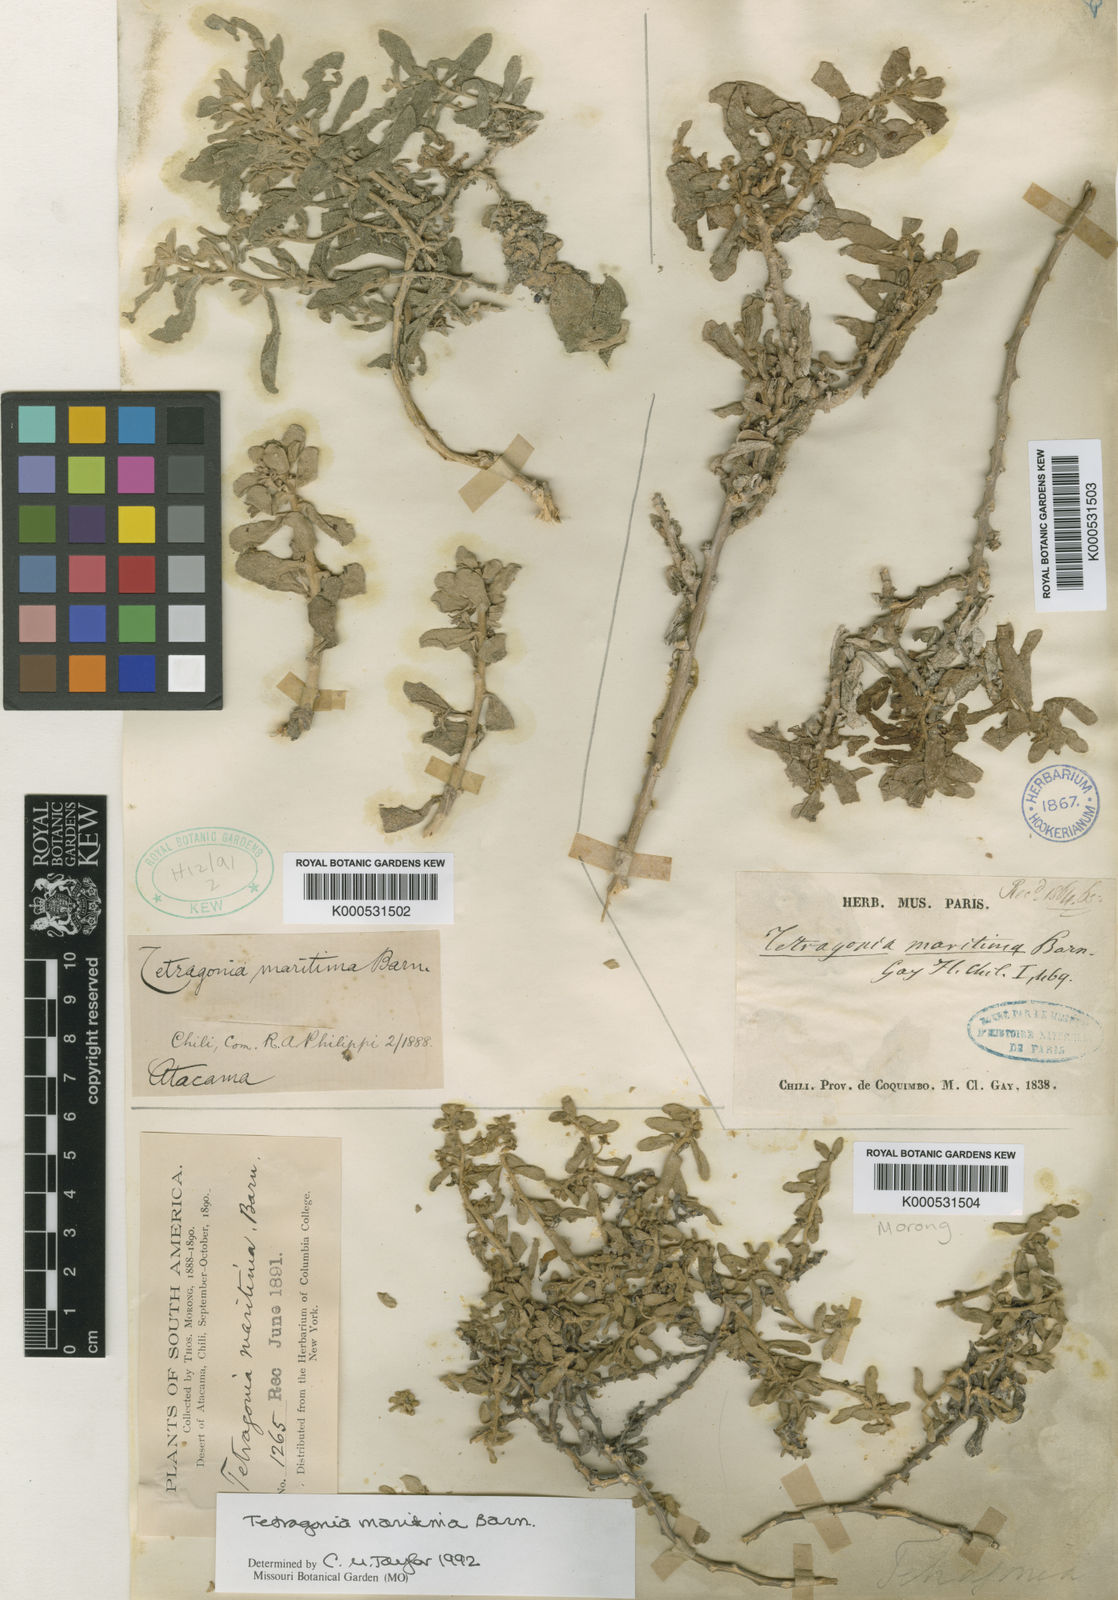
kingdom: Plantae
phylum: Tracheophyta
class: Magnoliopsida
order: Caryophyllales
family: Aizoaceae
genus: Tetragonia
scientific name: Tetragonia
